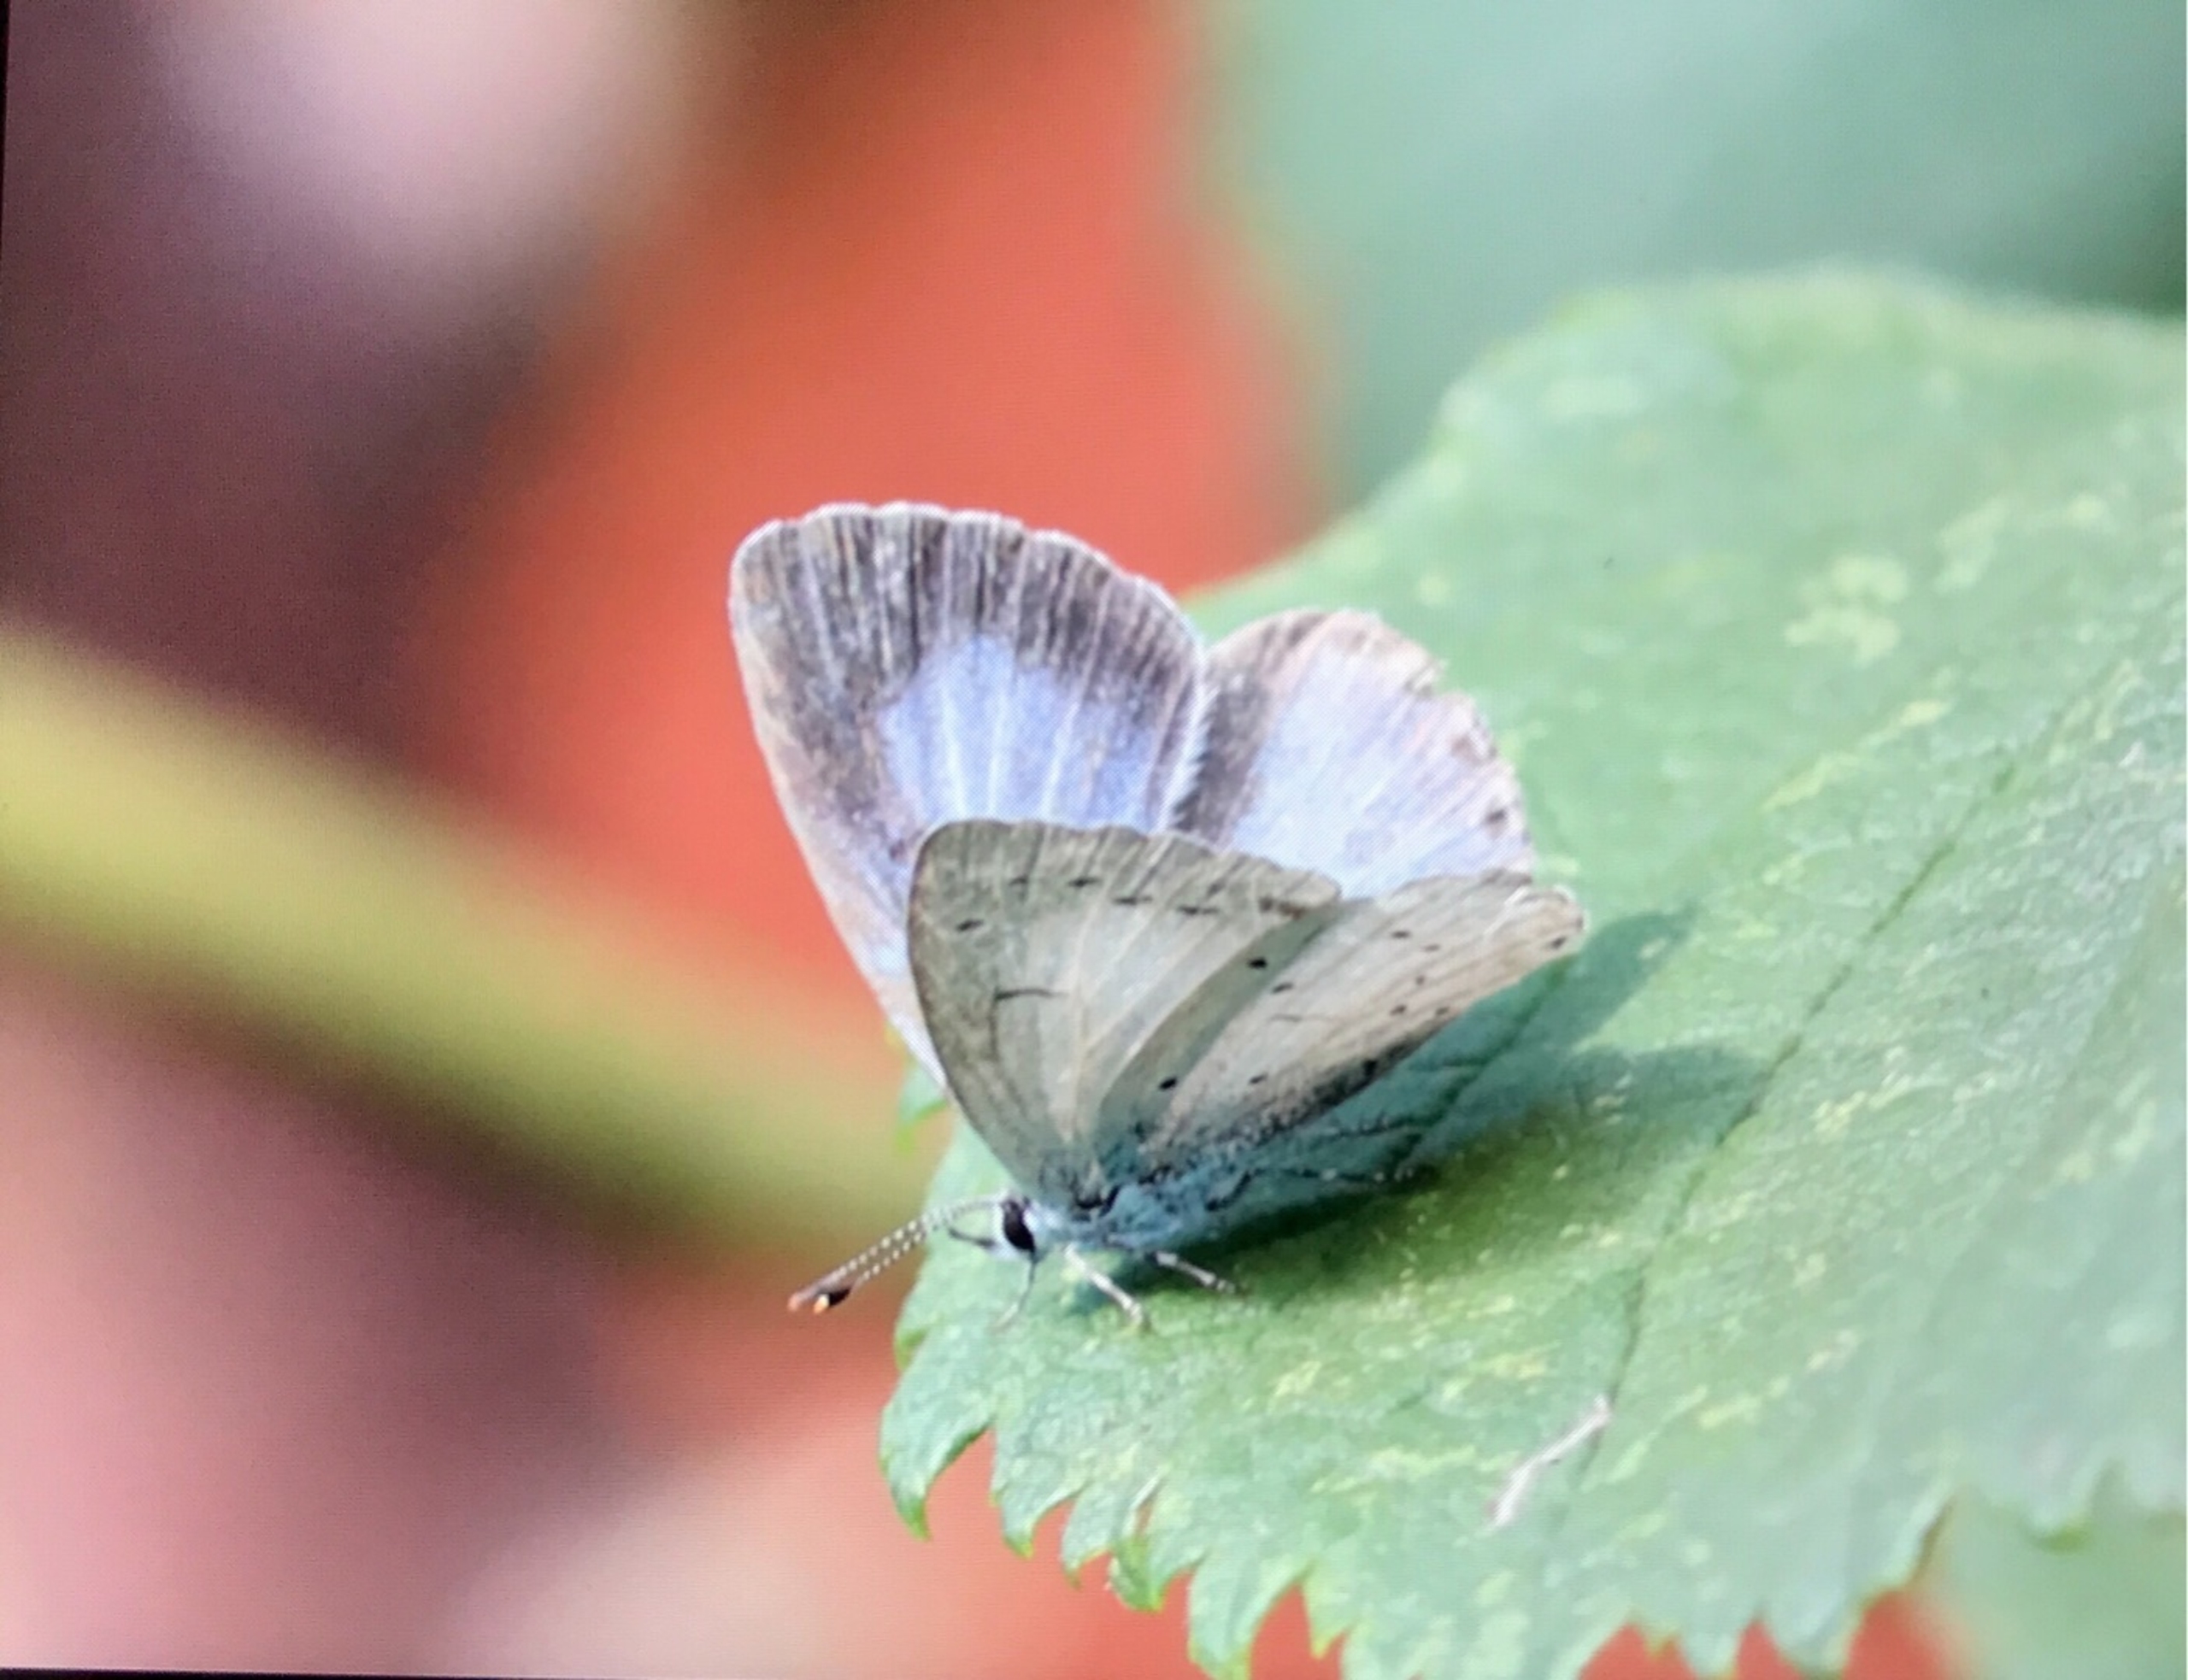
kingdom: Animalia
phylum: Arthropoda
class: Insecta
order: Lepidoptera
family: Lycaenidae
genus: Celastrina
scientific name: Celastrina argiolus
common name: Skovblåfugl
